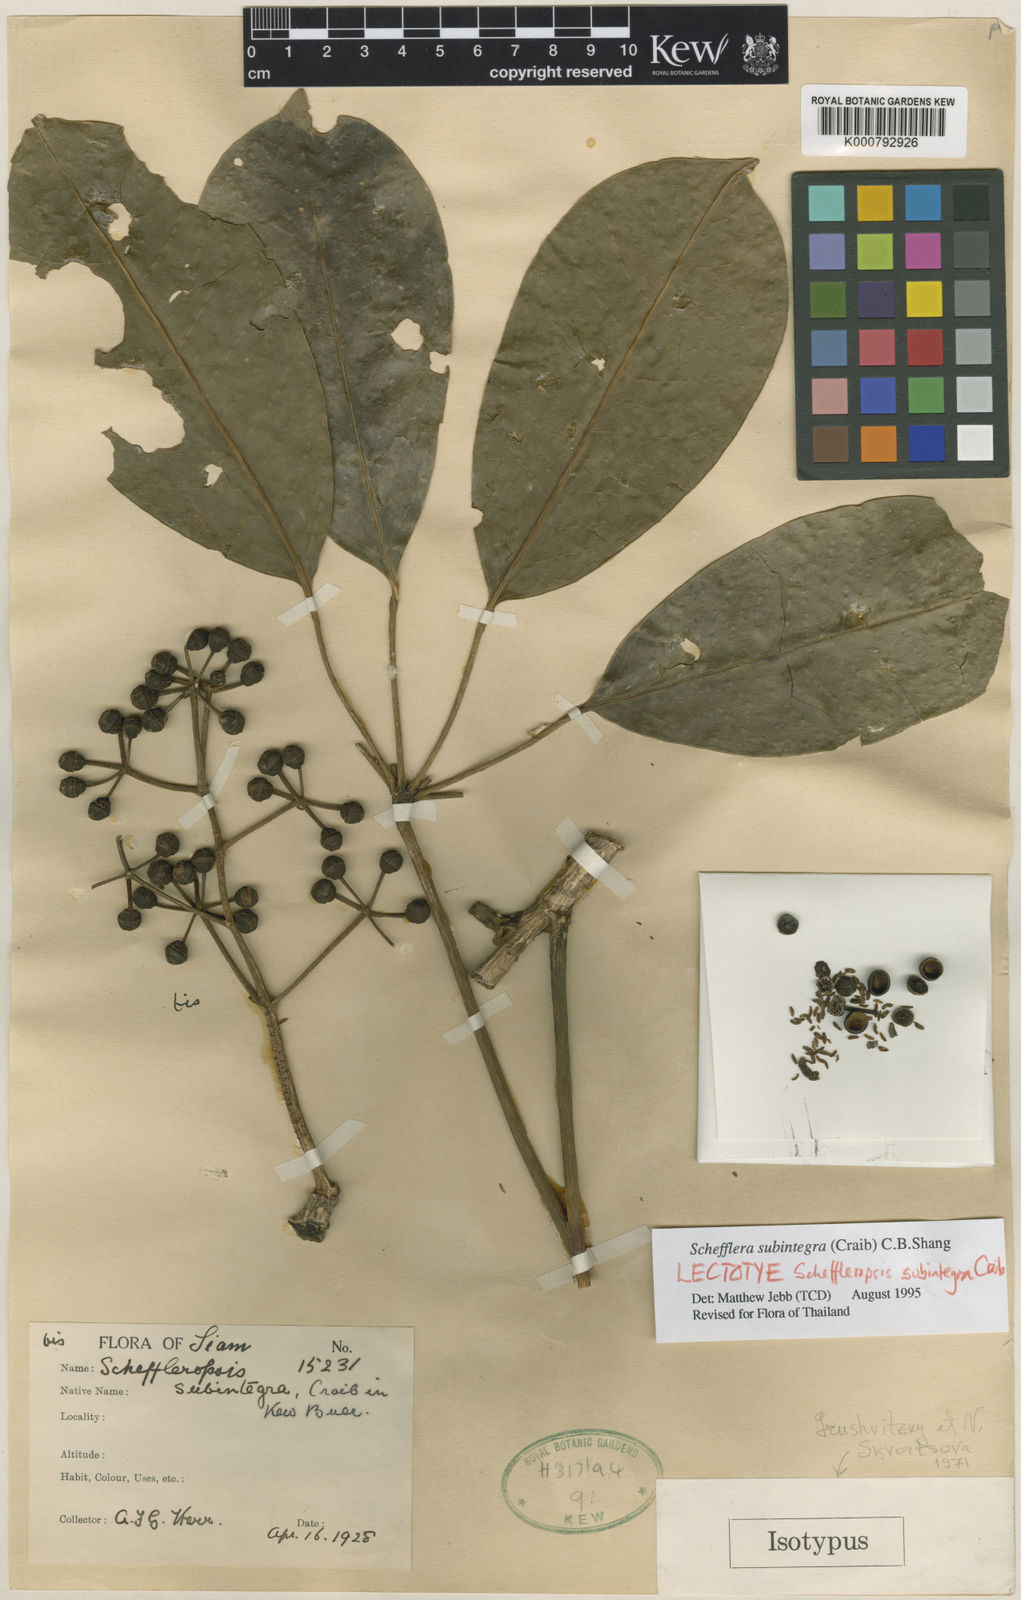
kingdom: Plantae
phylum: Tracheophyta
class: Magnoliopsida
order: Apiales
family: Araliaceae
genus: Heptapleurum
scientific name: Heptapleurum subintegrum
